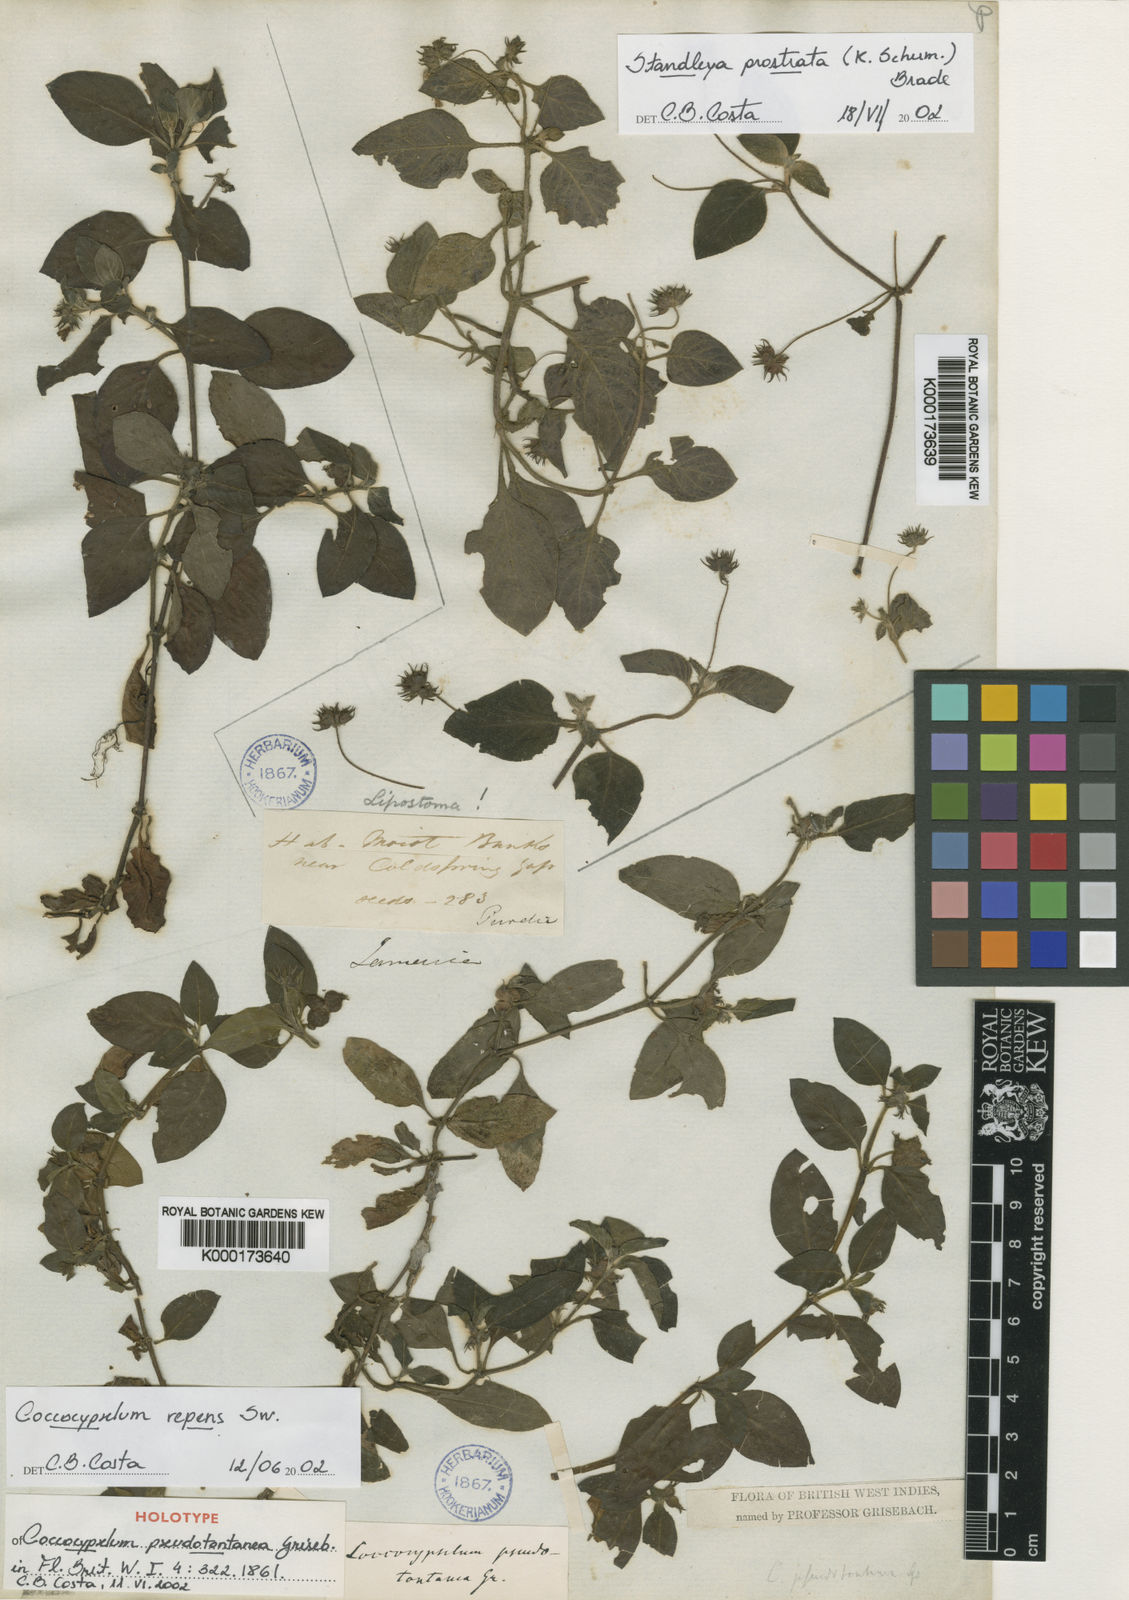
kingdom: Plantae
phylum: Tracheophyta
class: Magnoliopsida
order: Gentianales
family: Rubiaceae
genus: Coccocypselum
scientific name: Coccocypselum herbaceum
